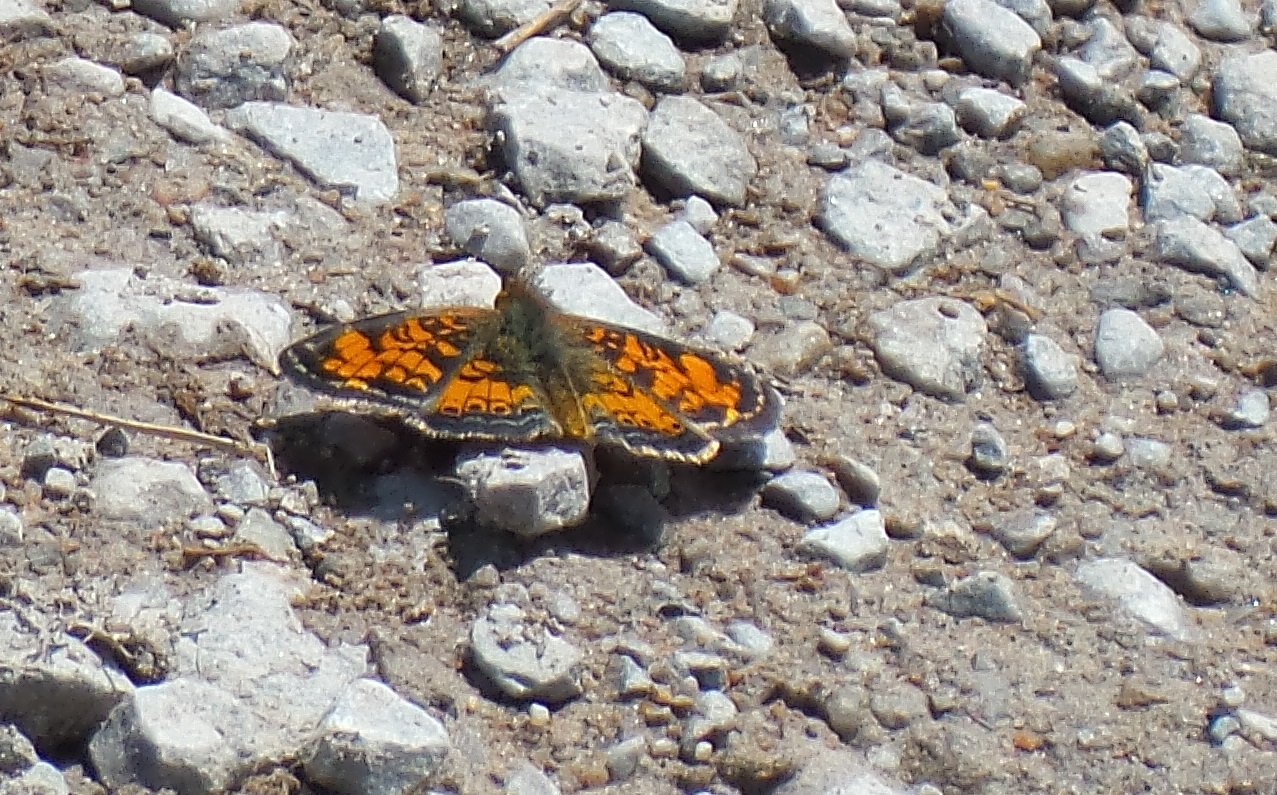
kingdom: Animalia
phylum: Arthropoda
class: Insecta
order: Lepidoptera
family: Nymphalidae
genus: Phyciodes
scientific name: Phyciodes tharos
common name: Pearl Crescent
